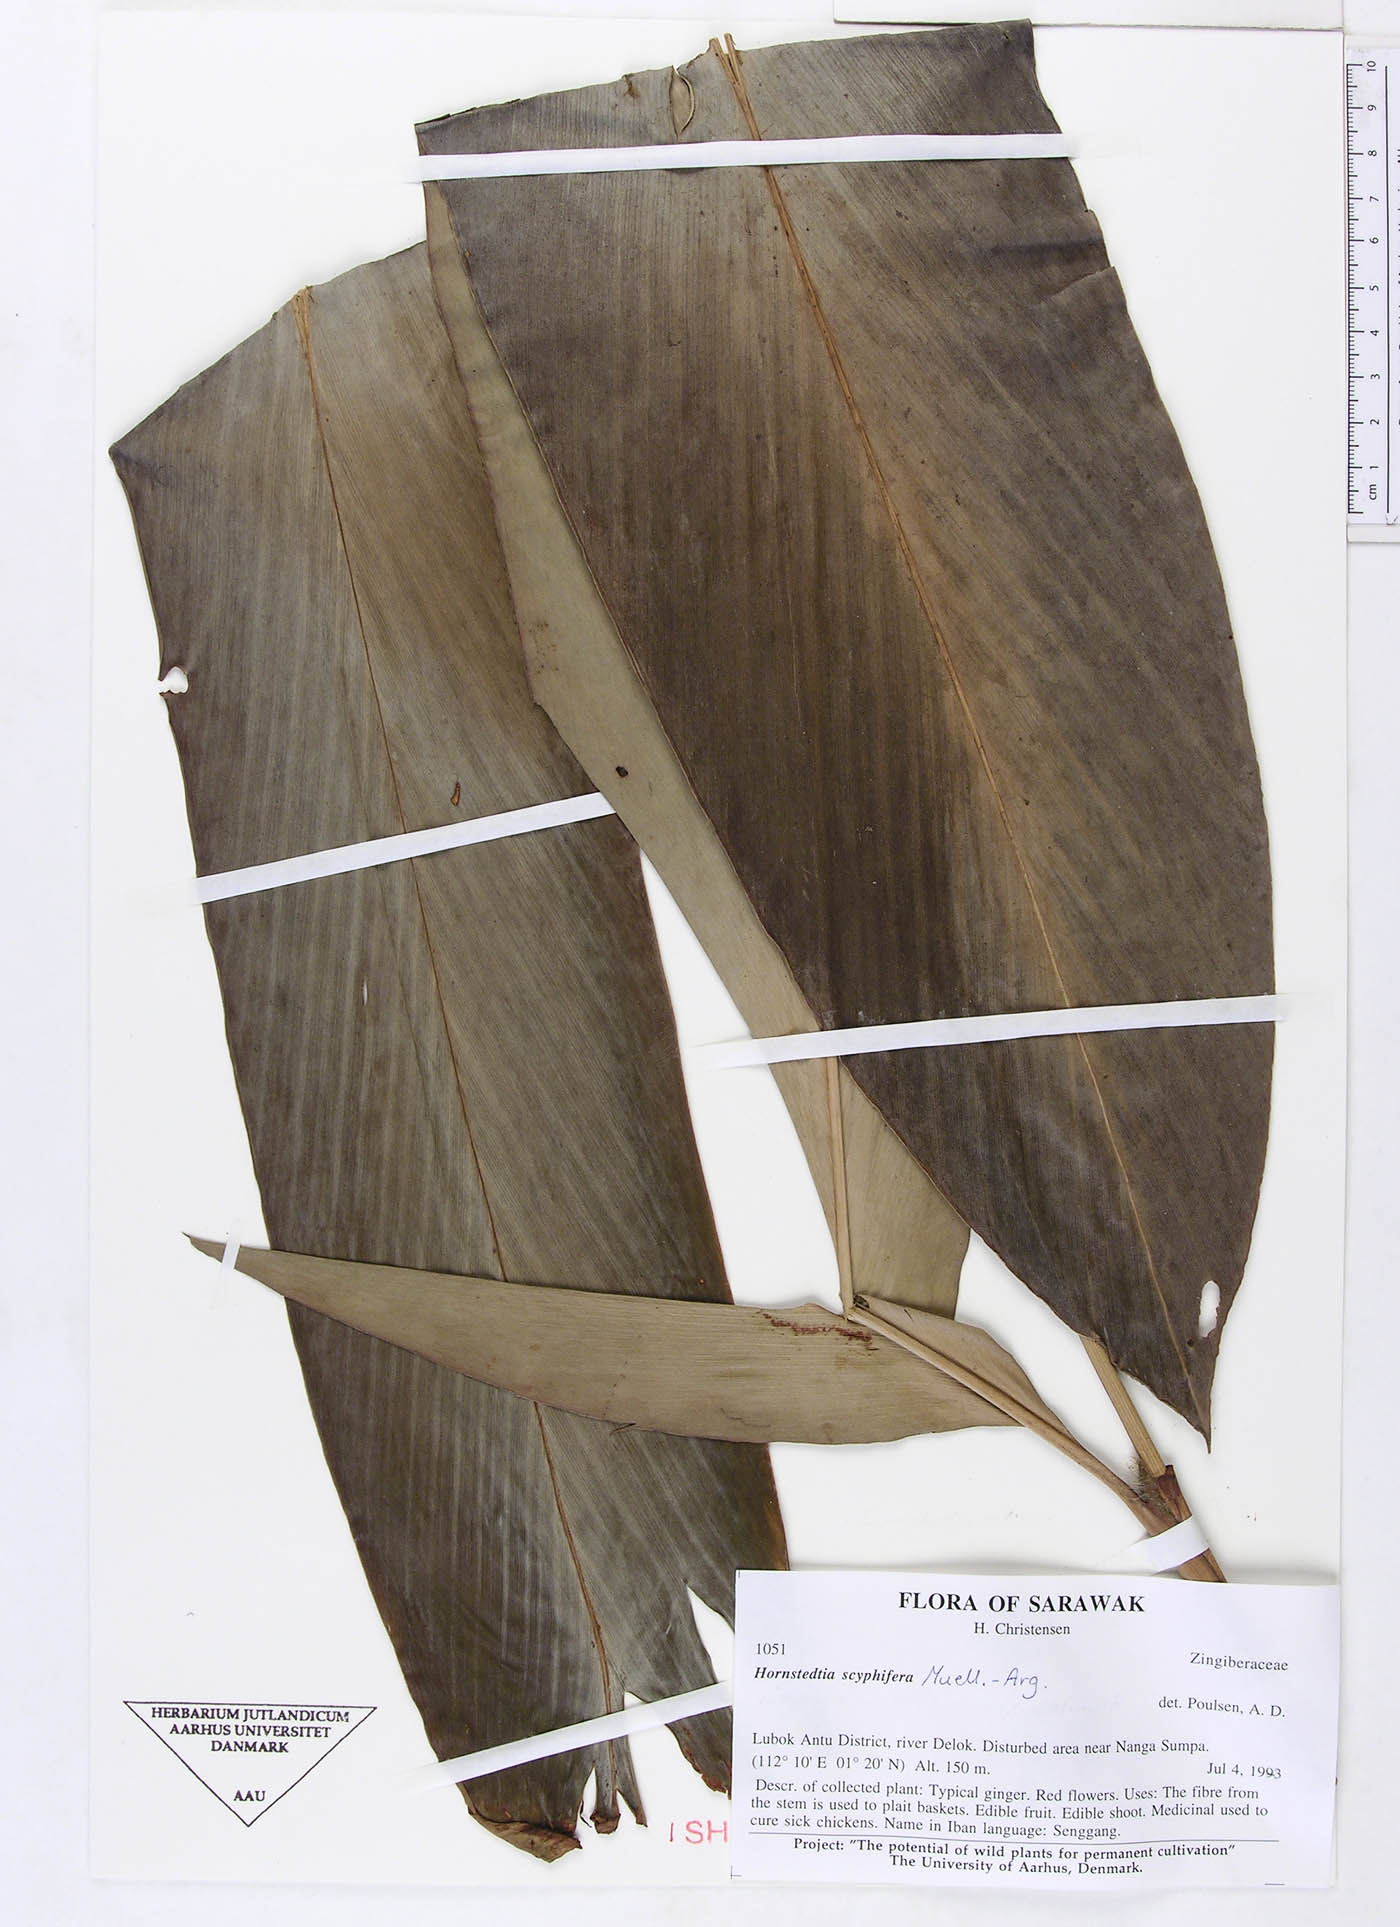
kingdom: Plantae
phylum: Tracheophyta
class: Liliopsida
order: Zingiberales
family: Zingiberaceae
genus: Hornstedtia
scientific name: Hornstedtia reticulata
